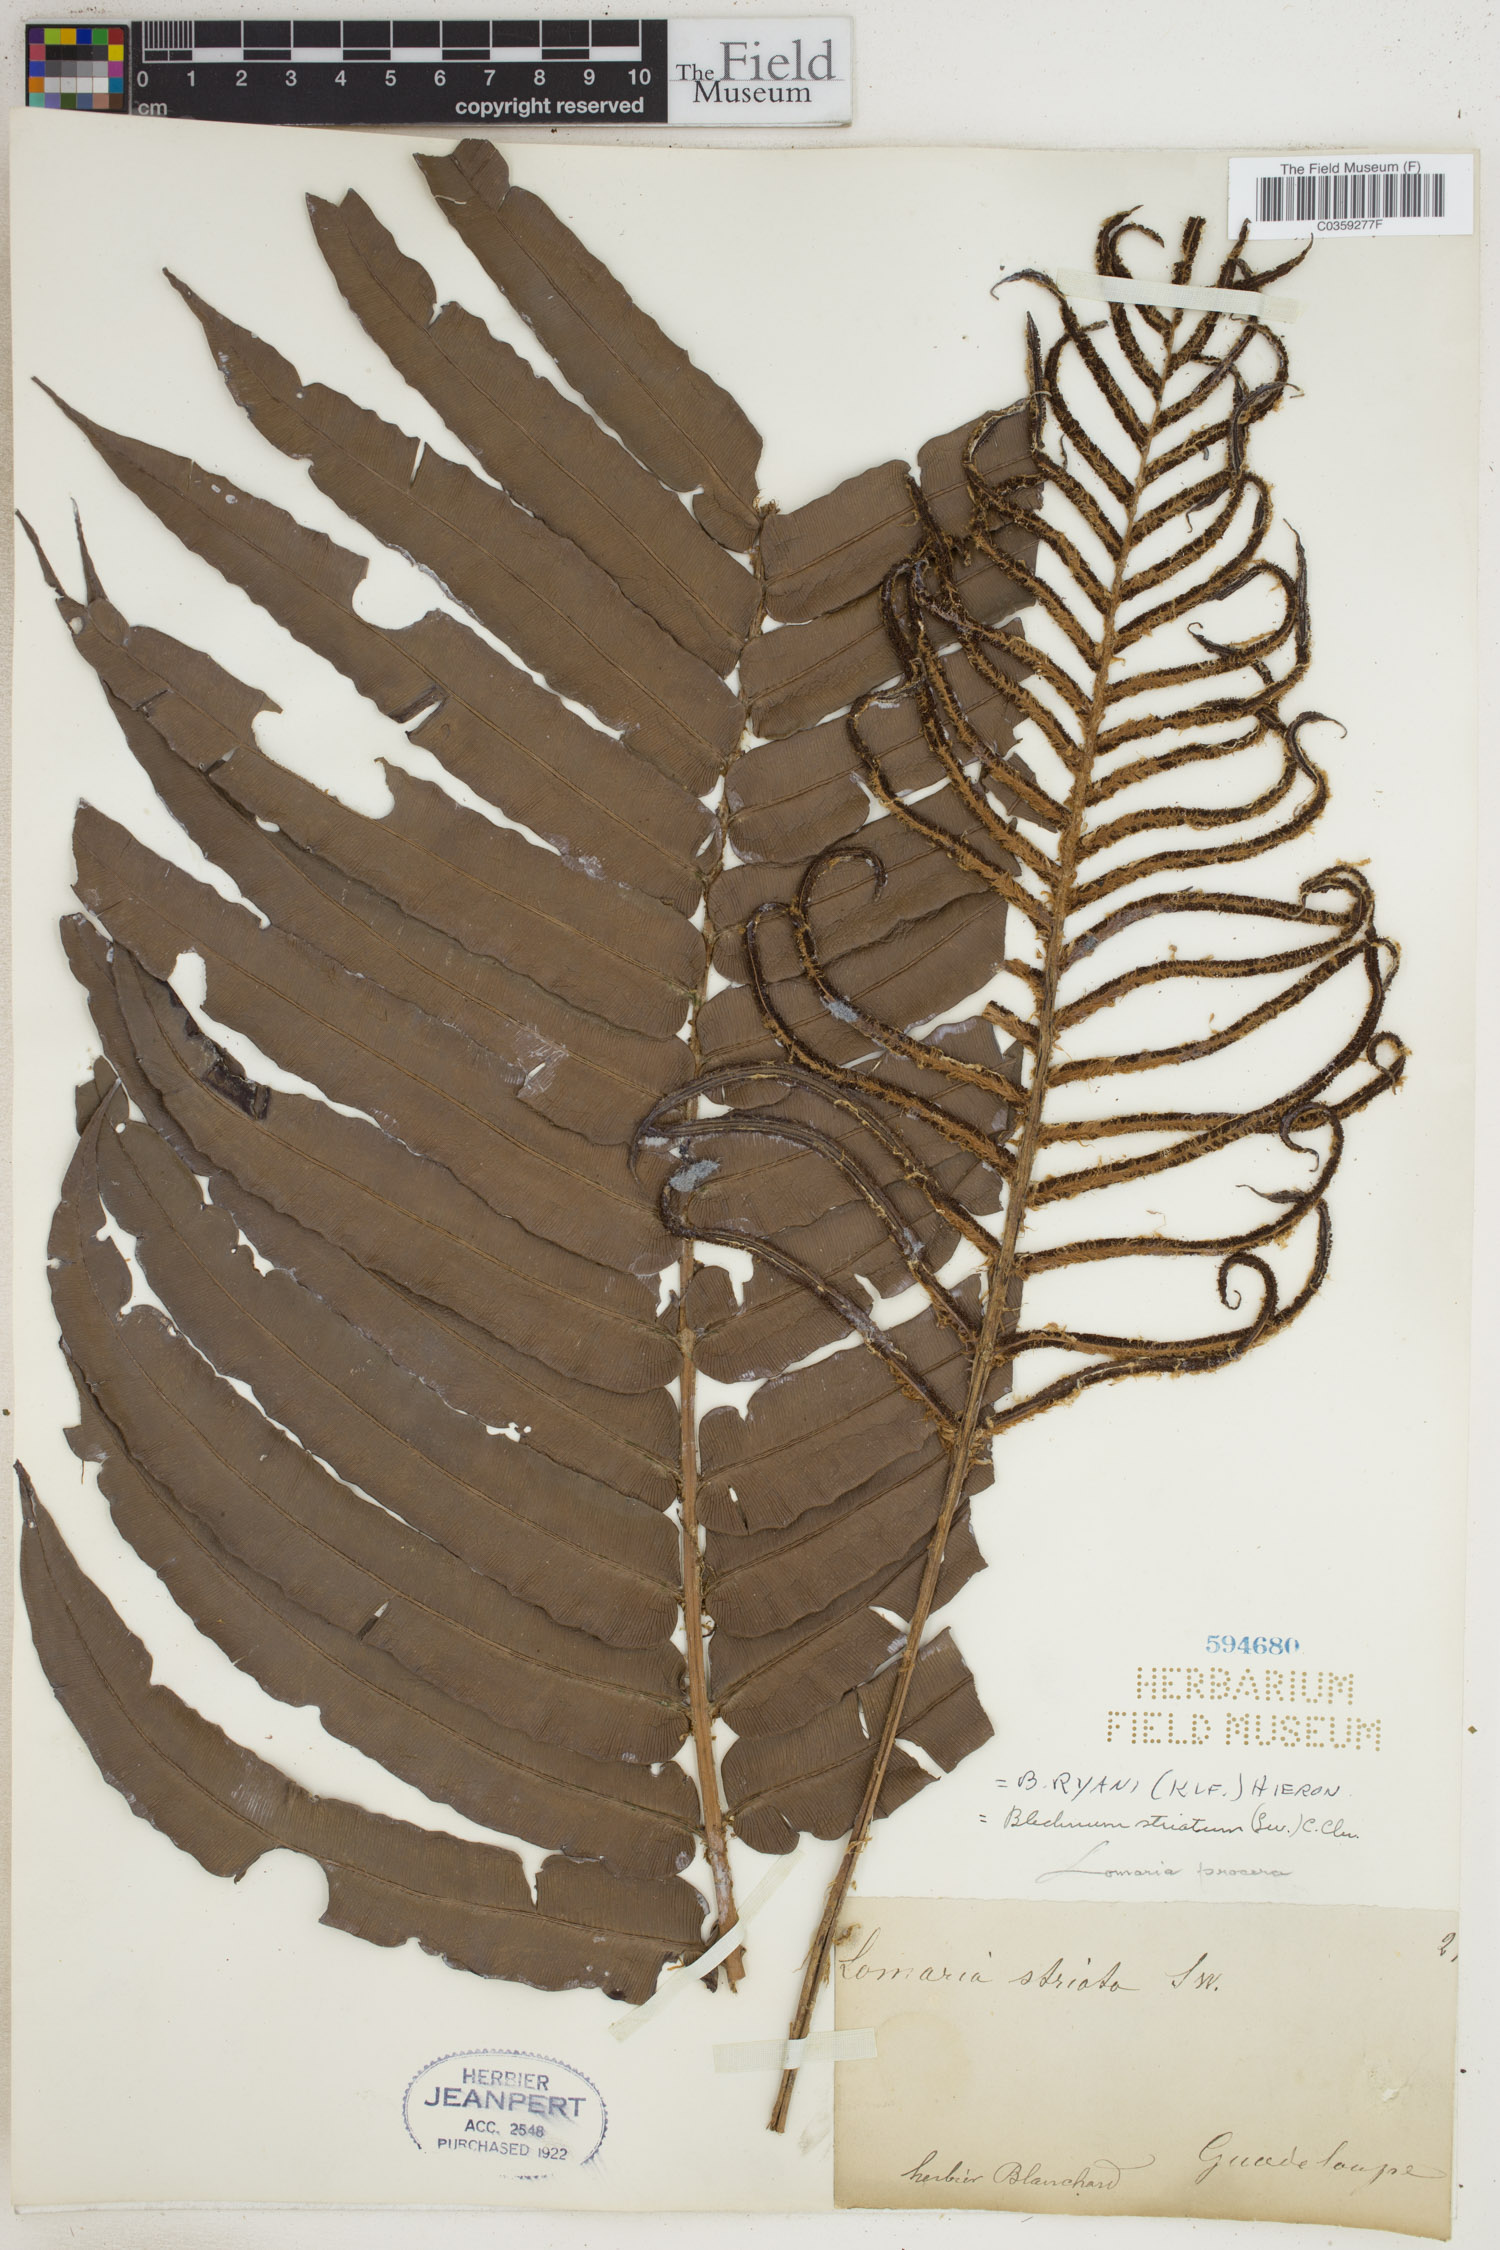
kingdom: Plantae
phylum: Tracheophyta
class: Polypodiopsida
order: Polypodiales
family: Blechnaceae
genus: Parablechnum
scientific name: Parablechnum ryanii
